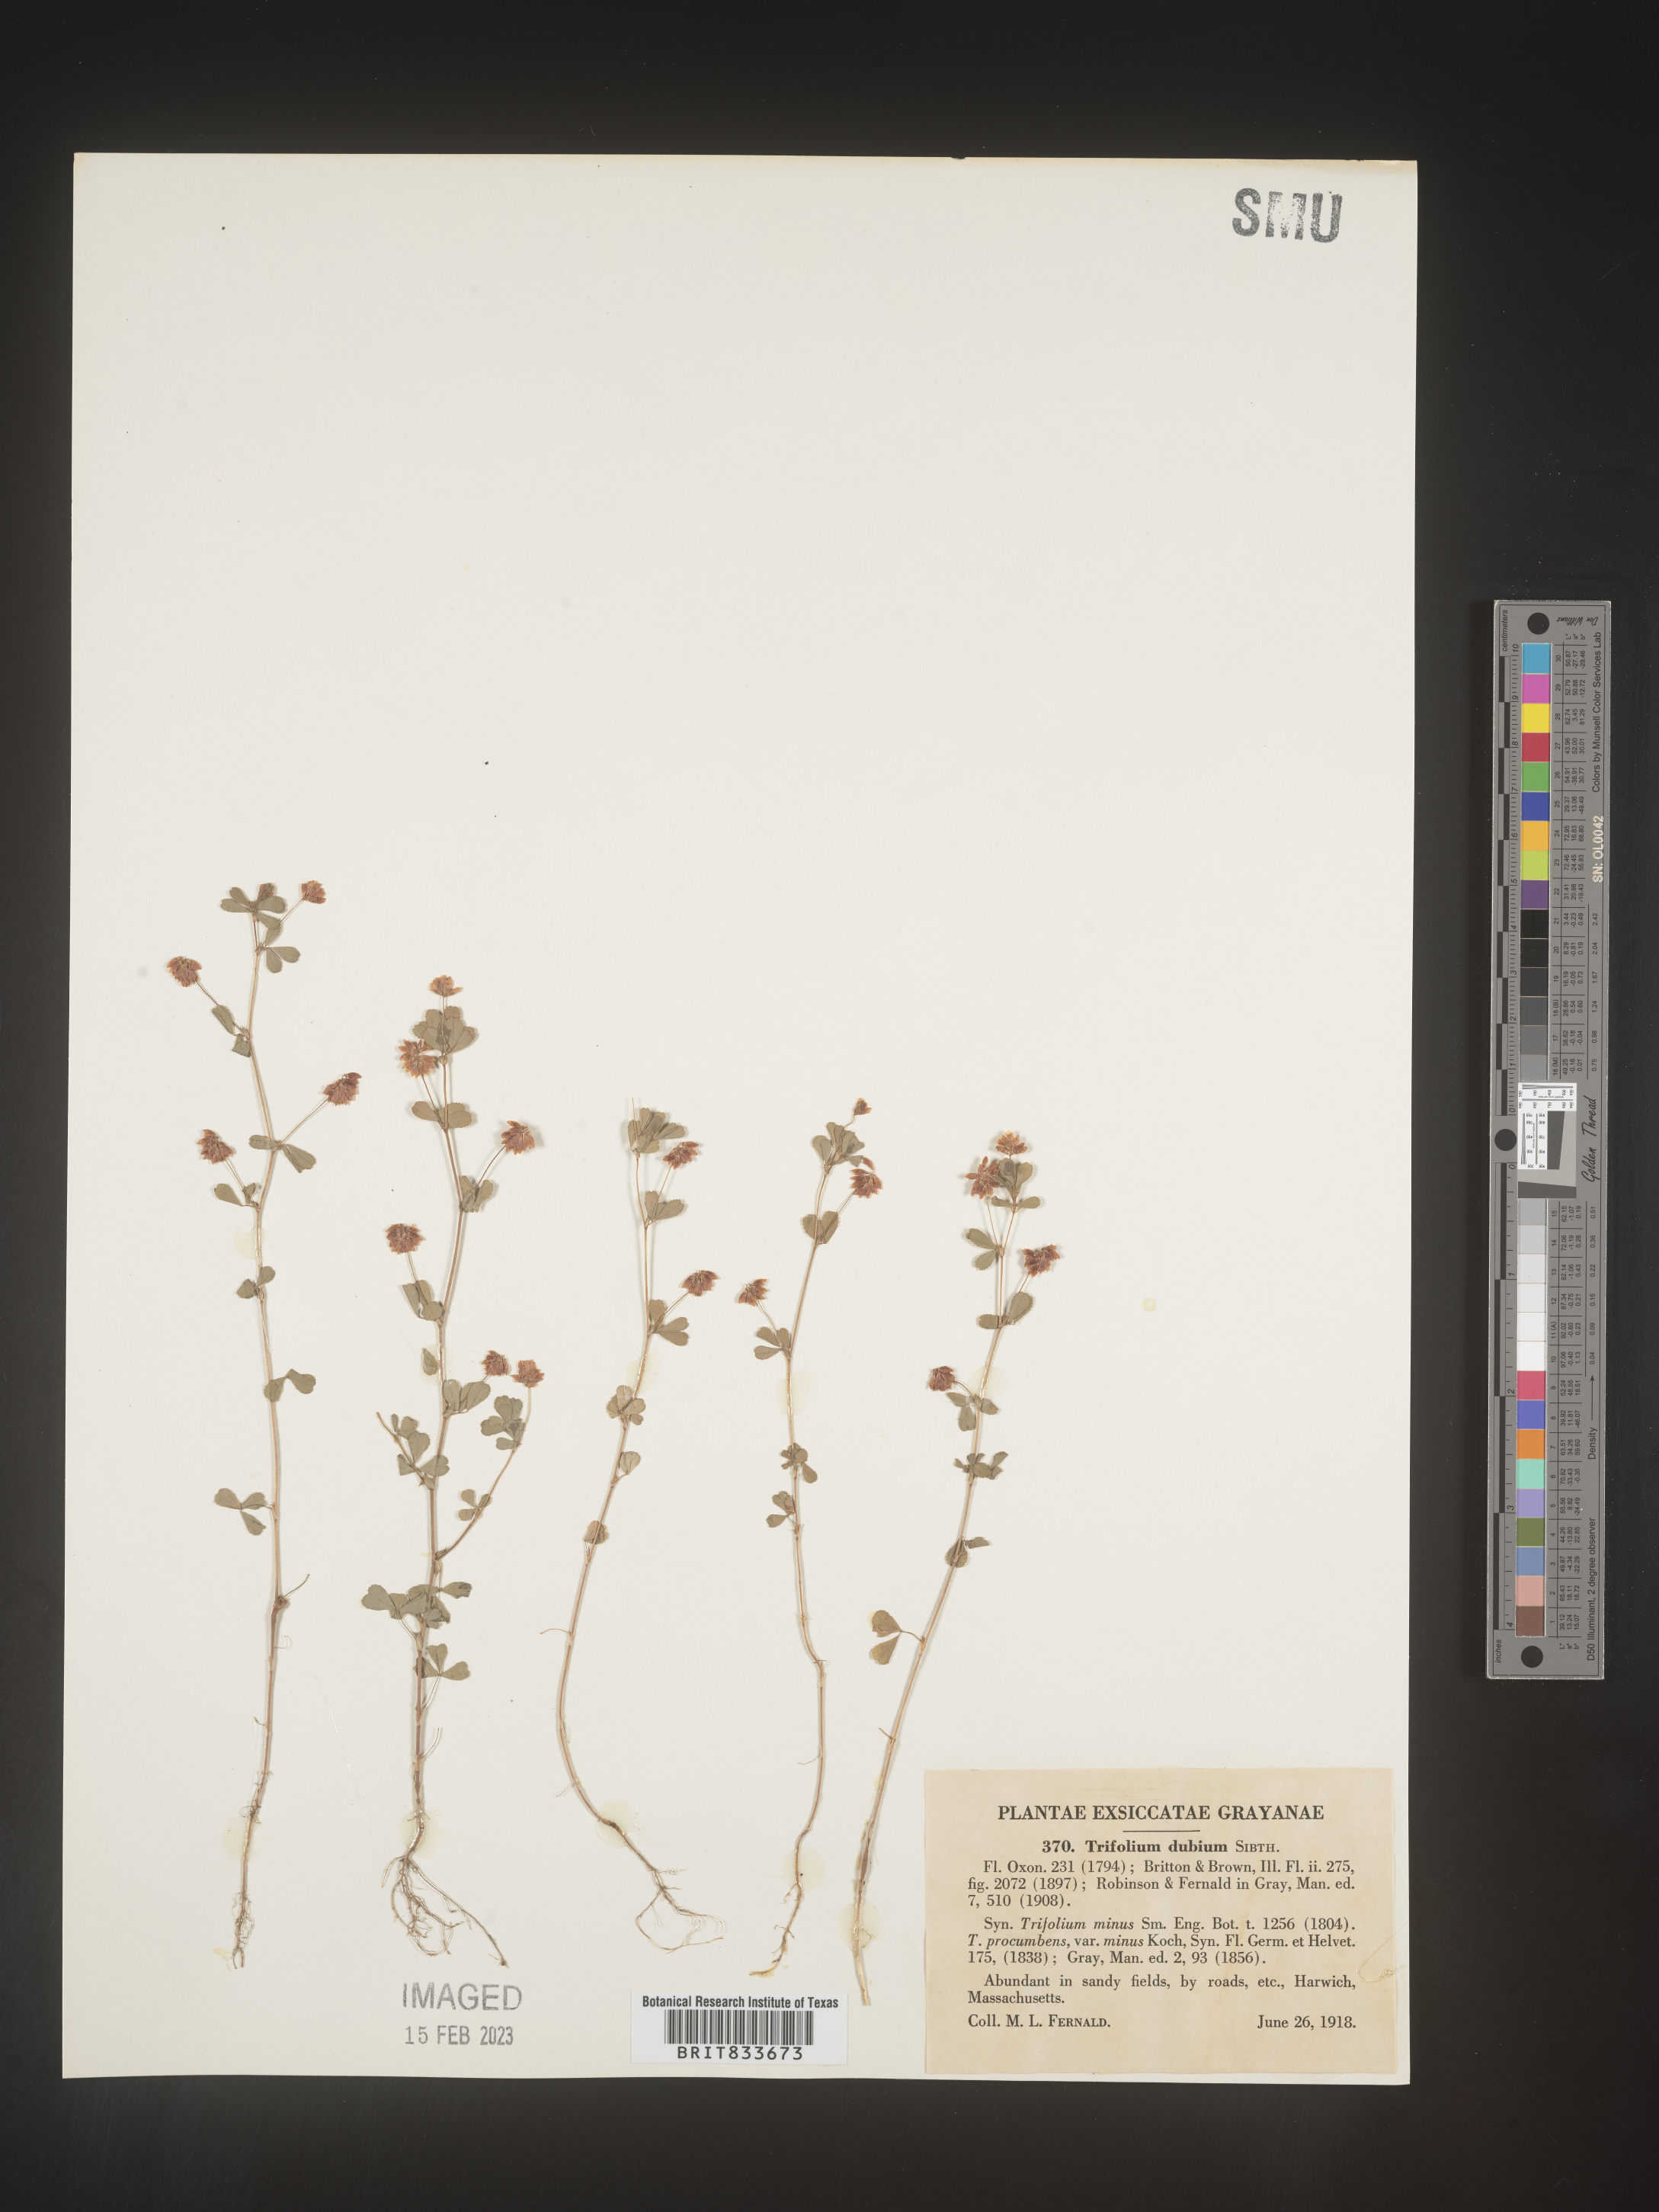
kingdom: Plantae
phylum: Tracheophyta
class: Magnoliopsida
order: Fabales
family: Fabaceae
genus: Trifolium
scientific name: Trifolium dubium
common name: Suckling clover
